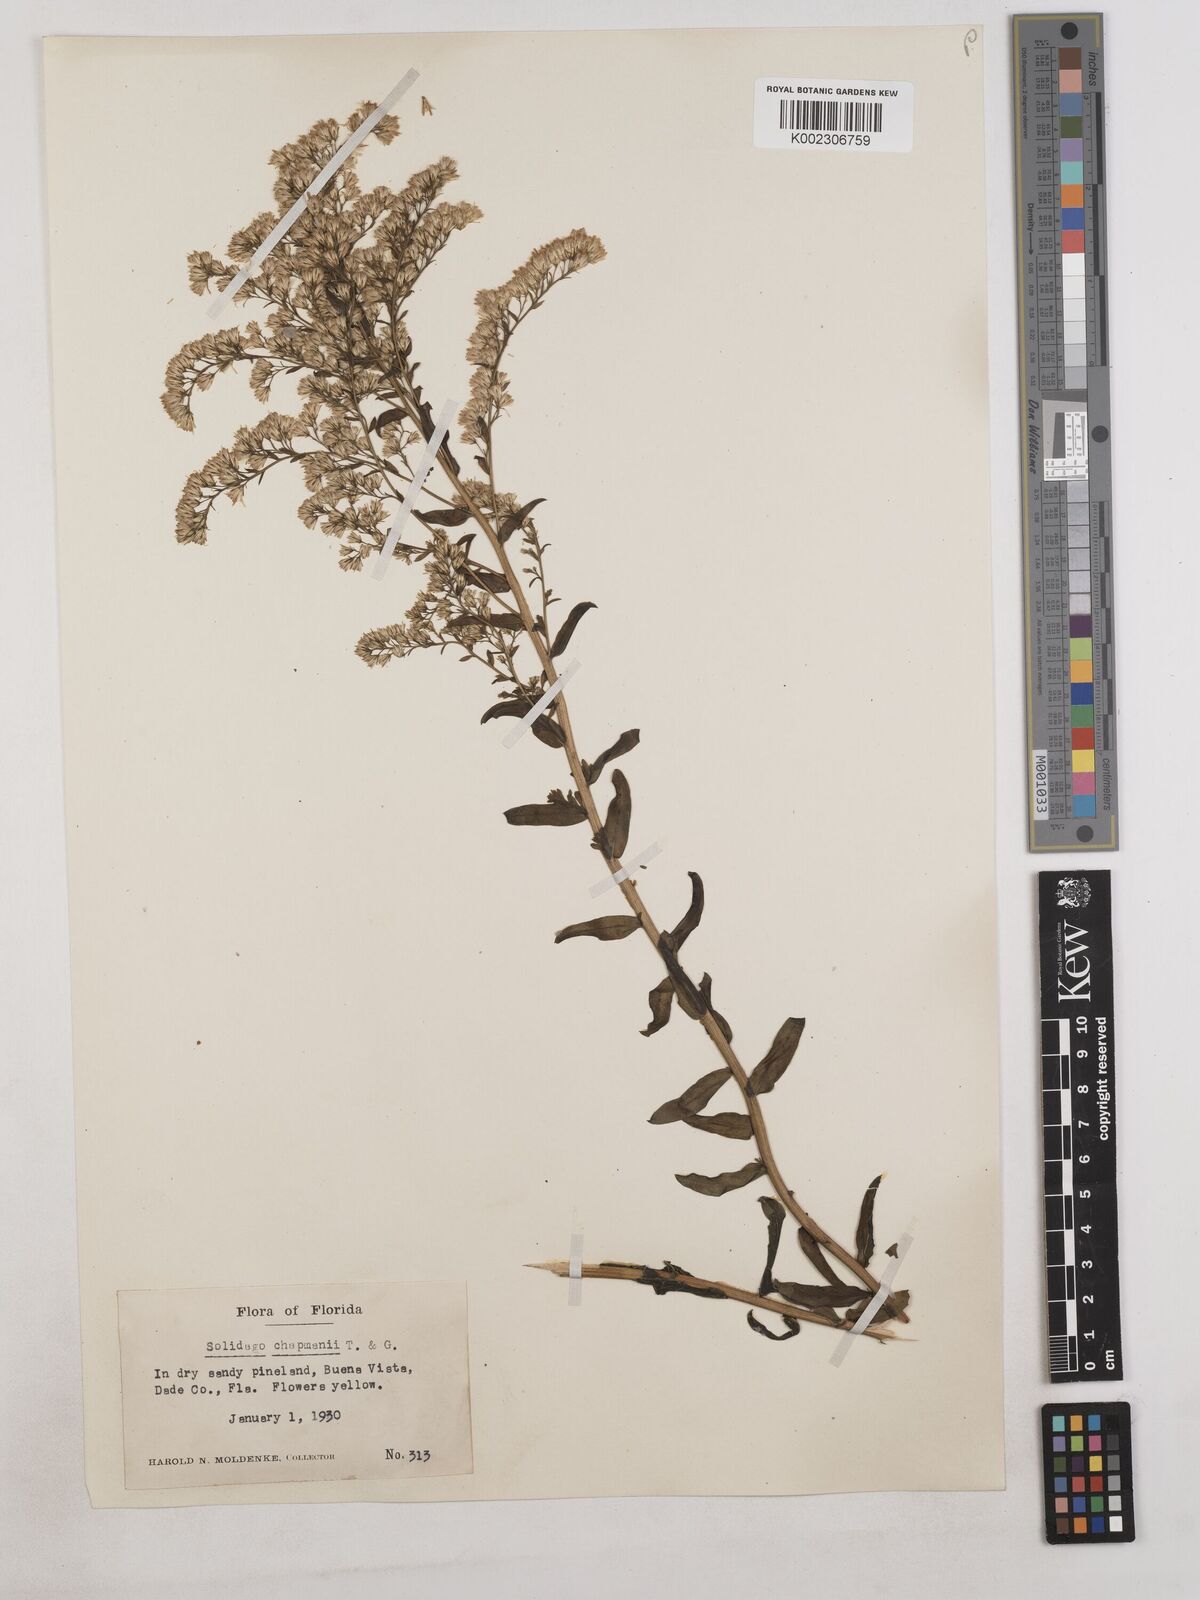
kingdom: Plantae
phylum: Tracheophyta
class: Magnoliopsida
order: Asterales
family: Asteraceae
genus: Solidago
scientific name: Solidago chapmanii
